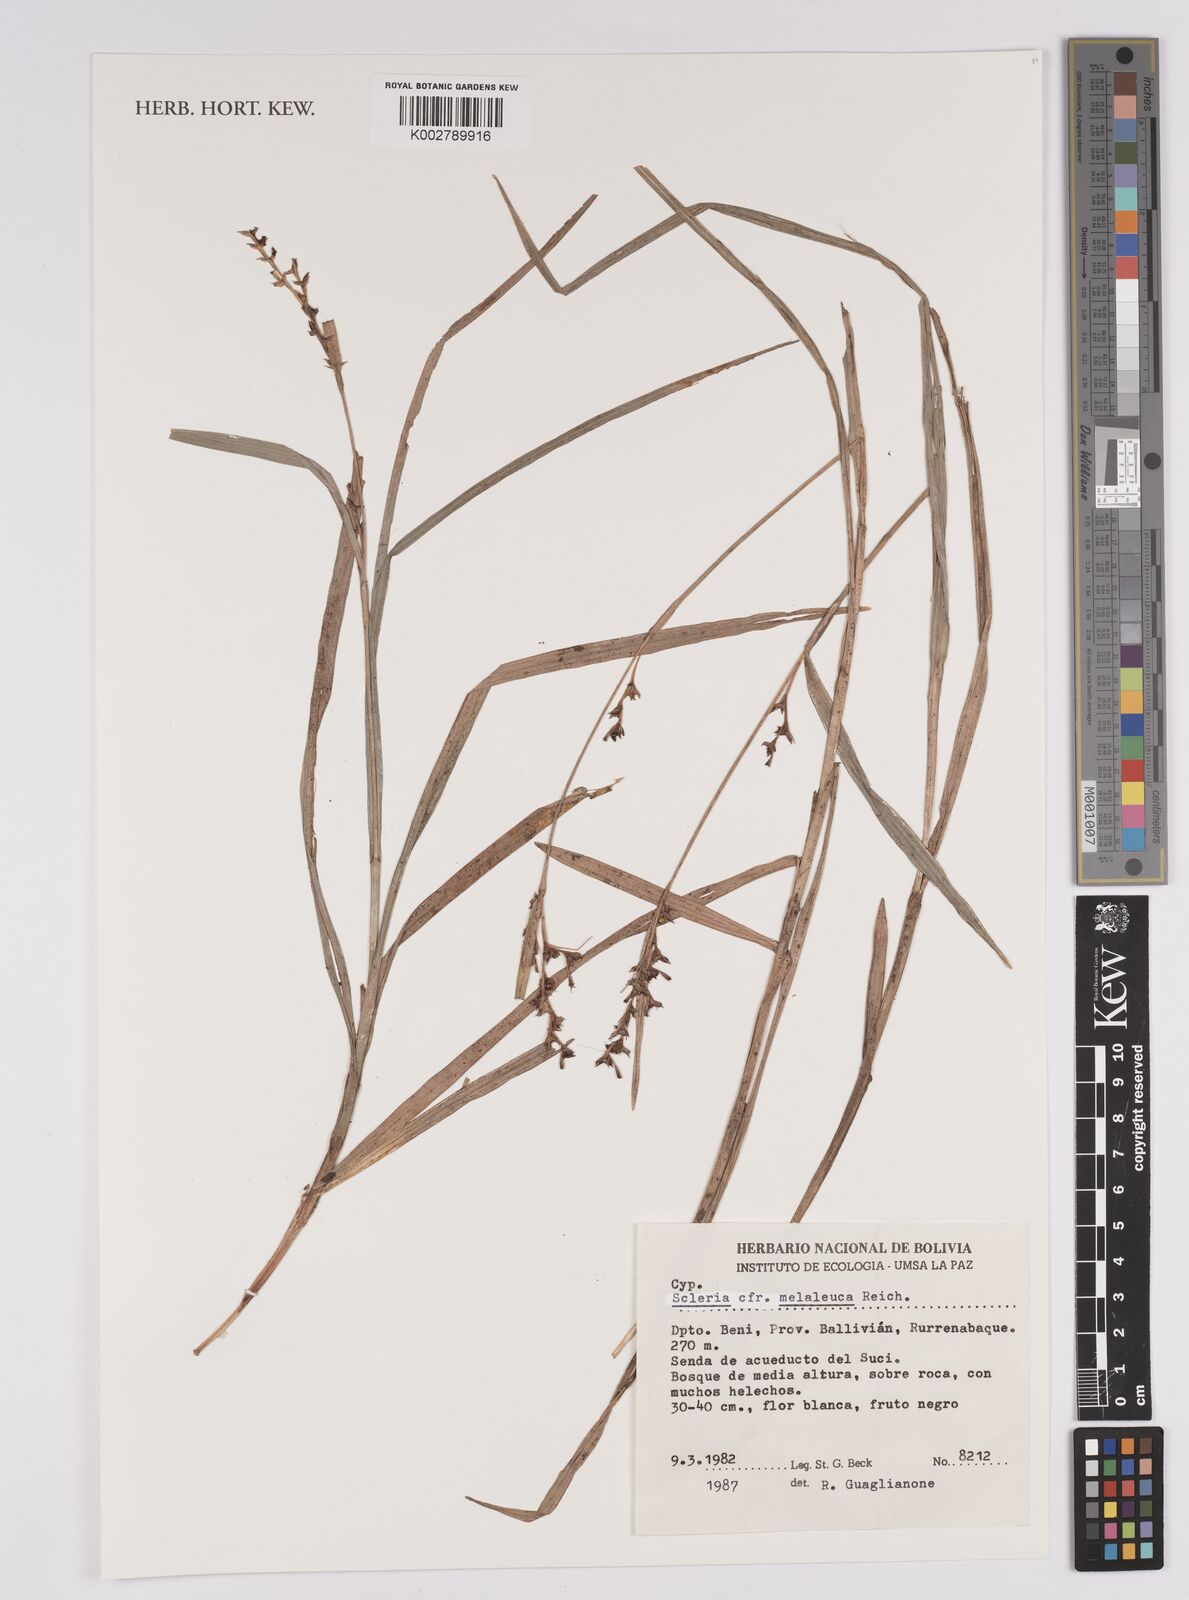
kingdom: Plantae
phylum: Tracheophyta
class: Liliopsida
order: Poales
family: Cyperaceae
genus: Scleria
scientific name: Scleria gaertneri
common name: Cortadera blanca
